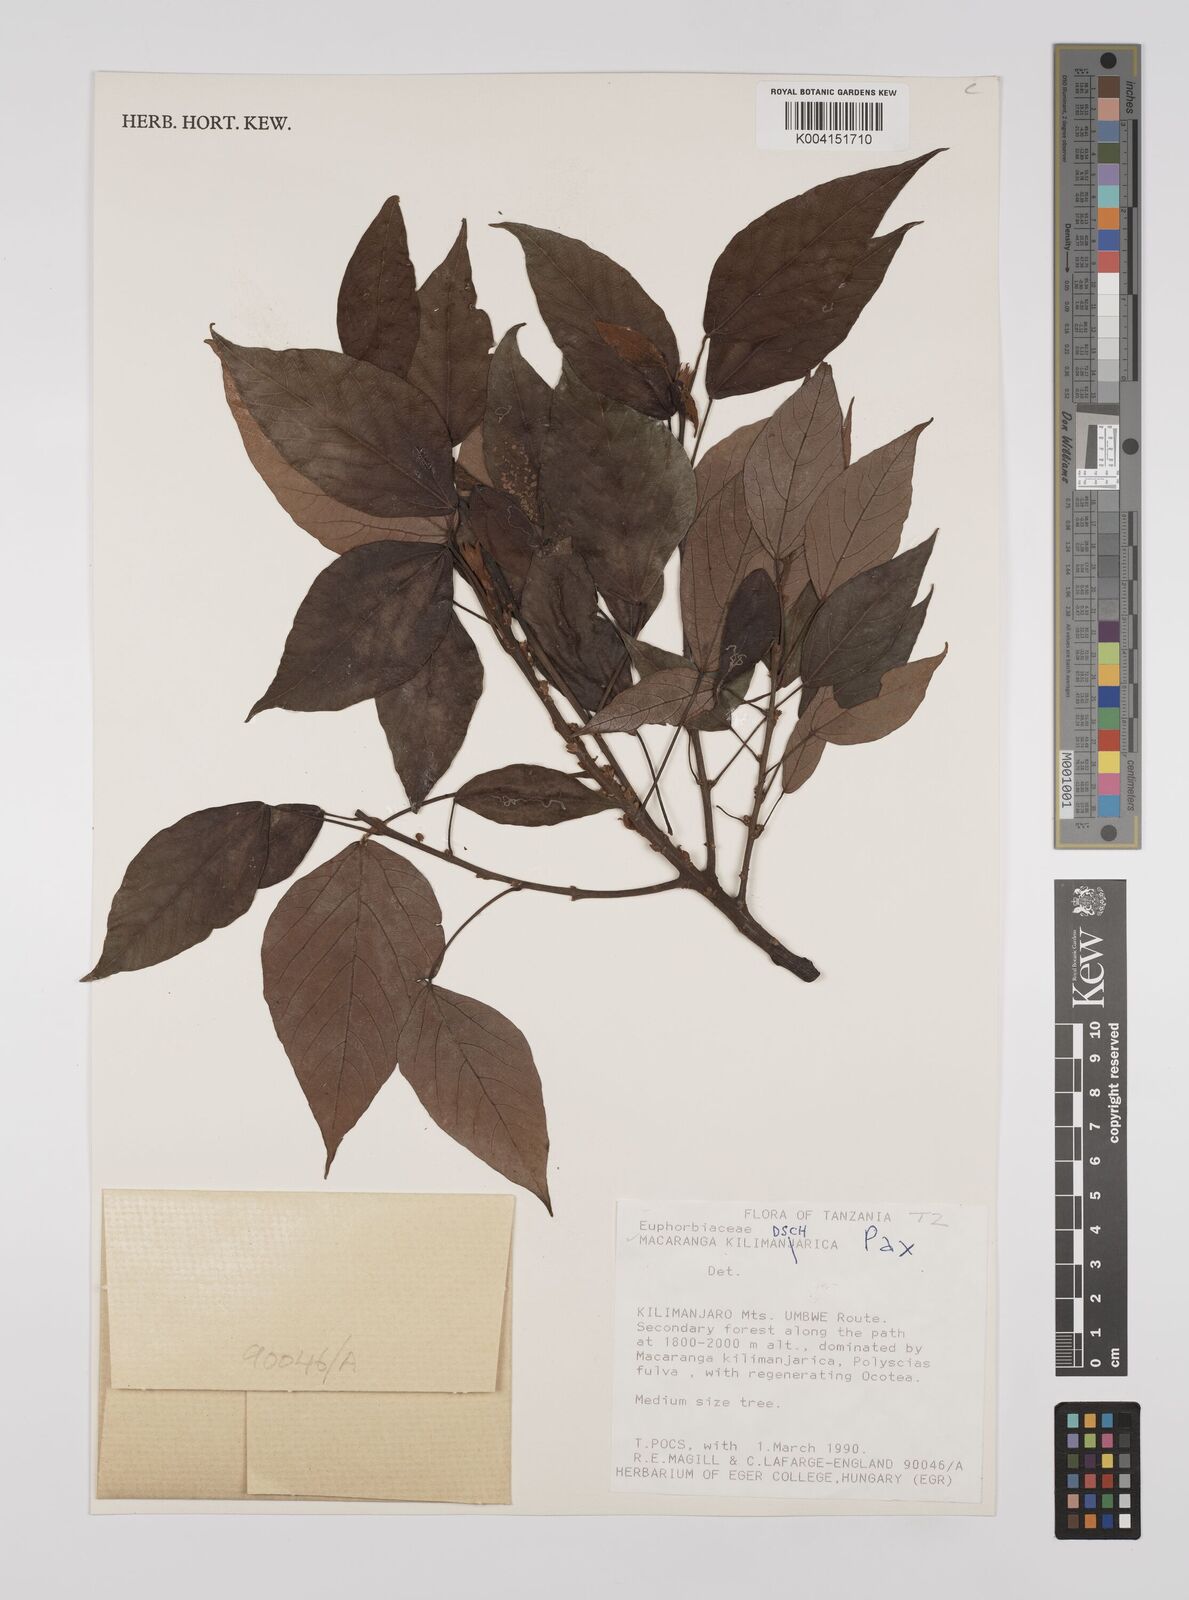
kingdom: Plantae
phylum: Tracheophyta
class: Magnoliopsida
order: Malpighiales
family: Euphorbiaceae
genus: Macaranga
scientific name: Macaranga kilimandscharica
